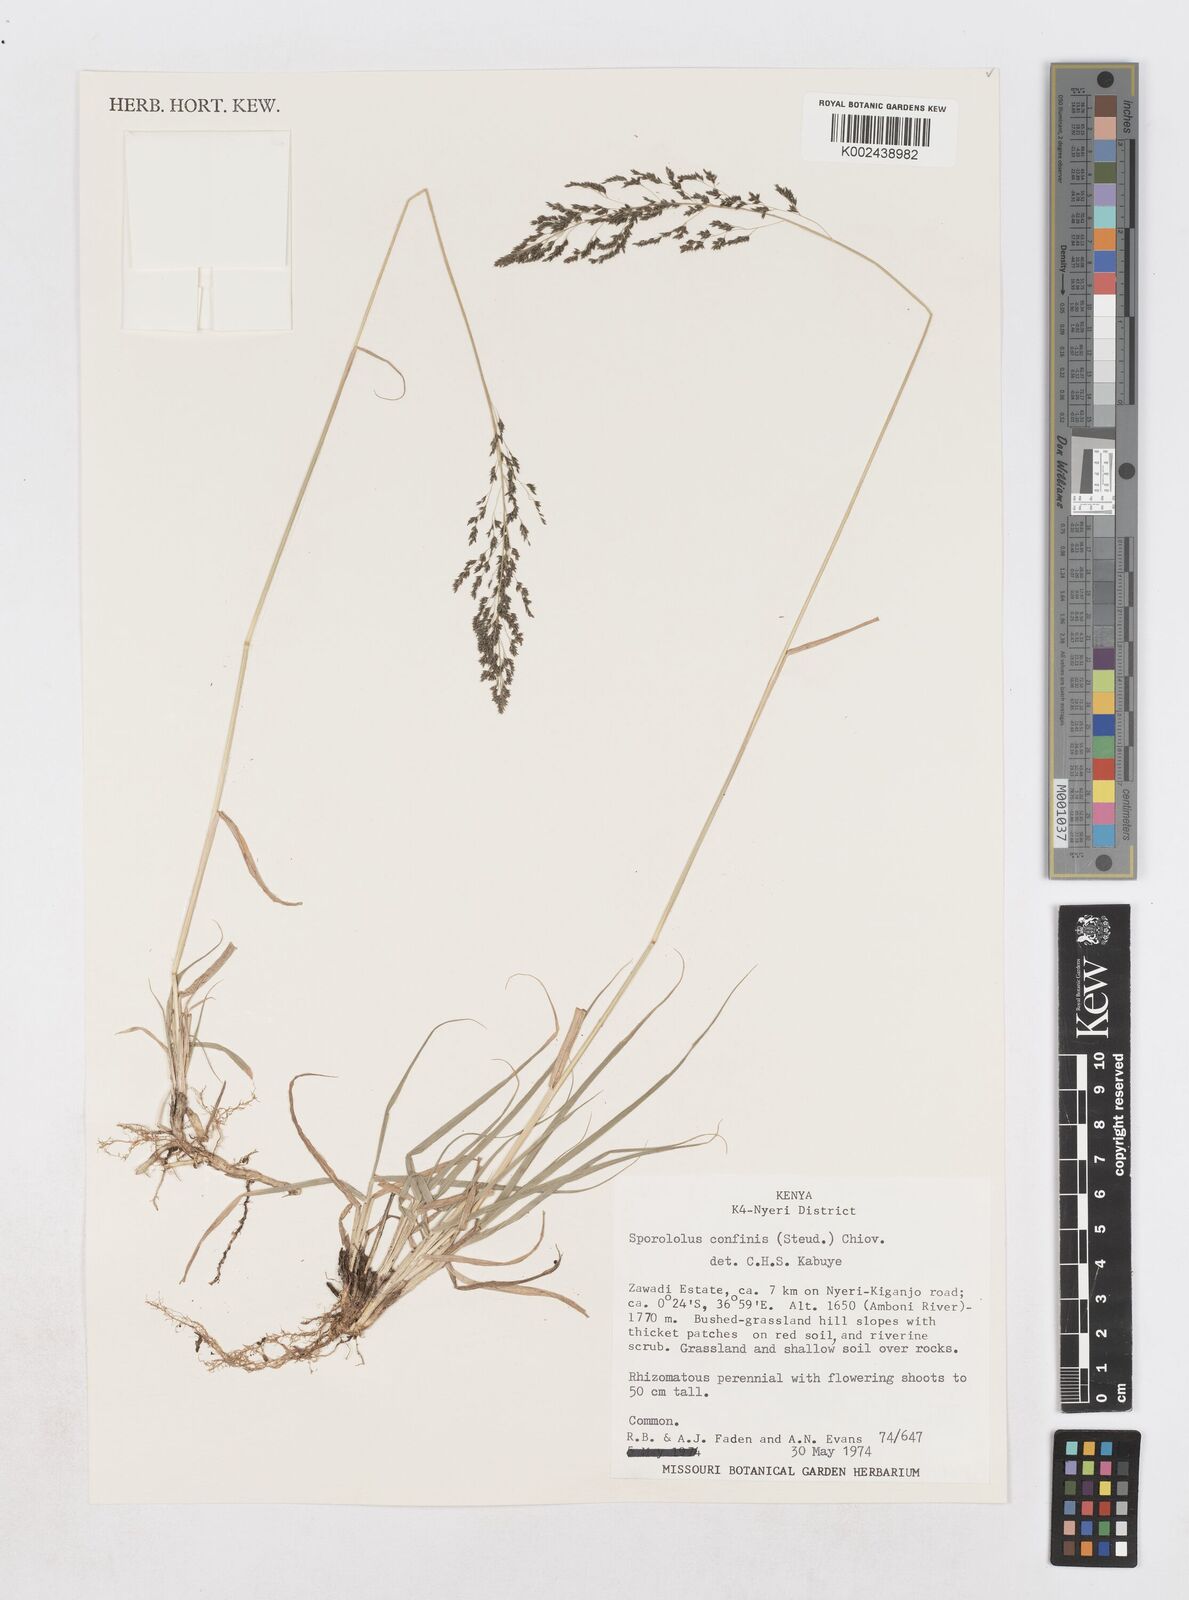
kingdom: Plantae
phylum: Tracheophyta
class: Liliopsida
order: Poales
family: Poaceae
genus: Sporobolus
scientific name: Sporobolus confinis
